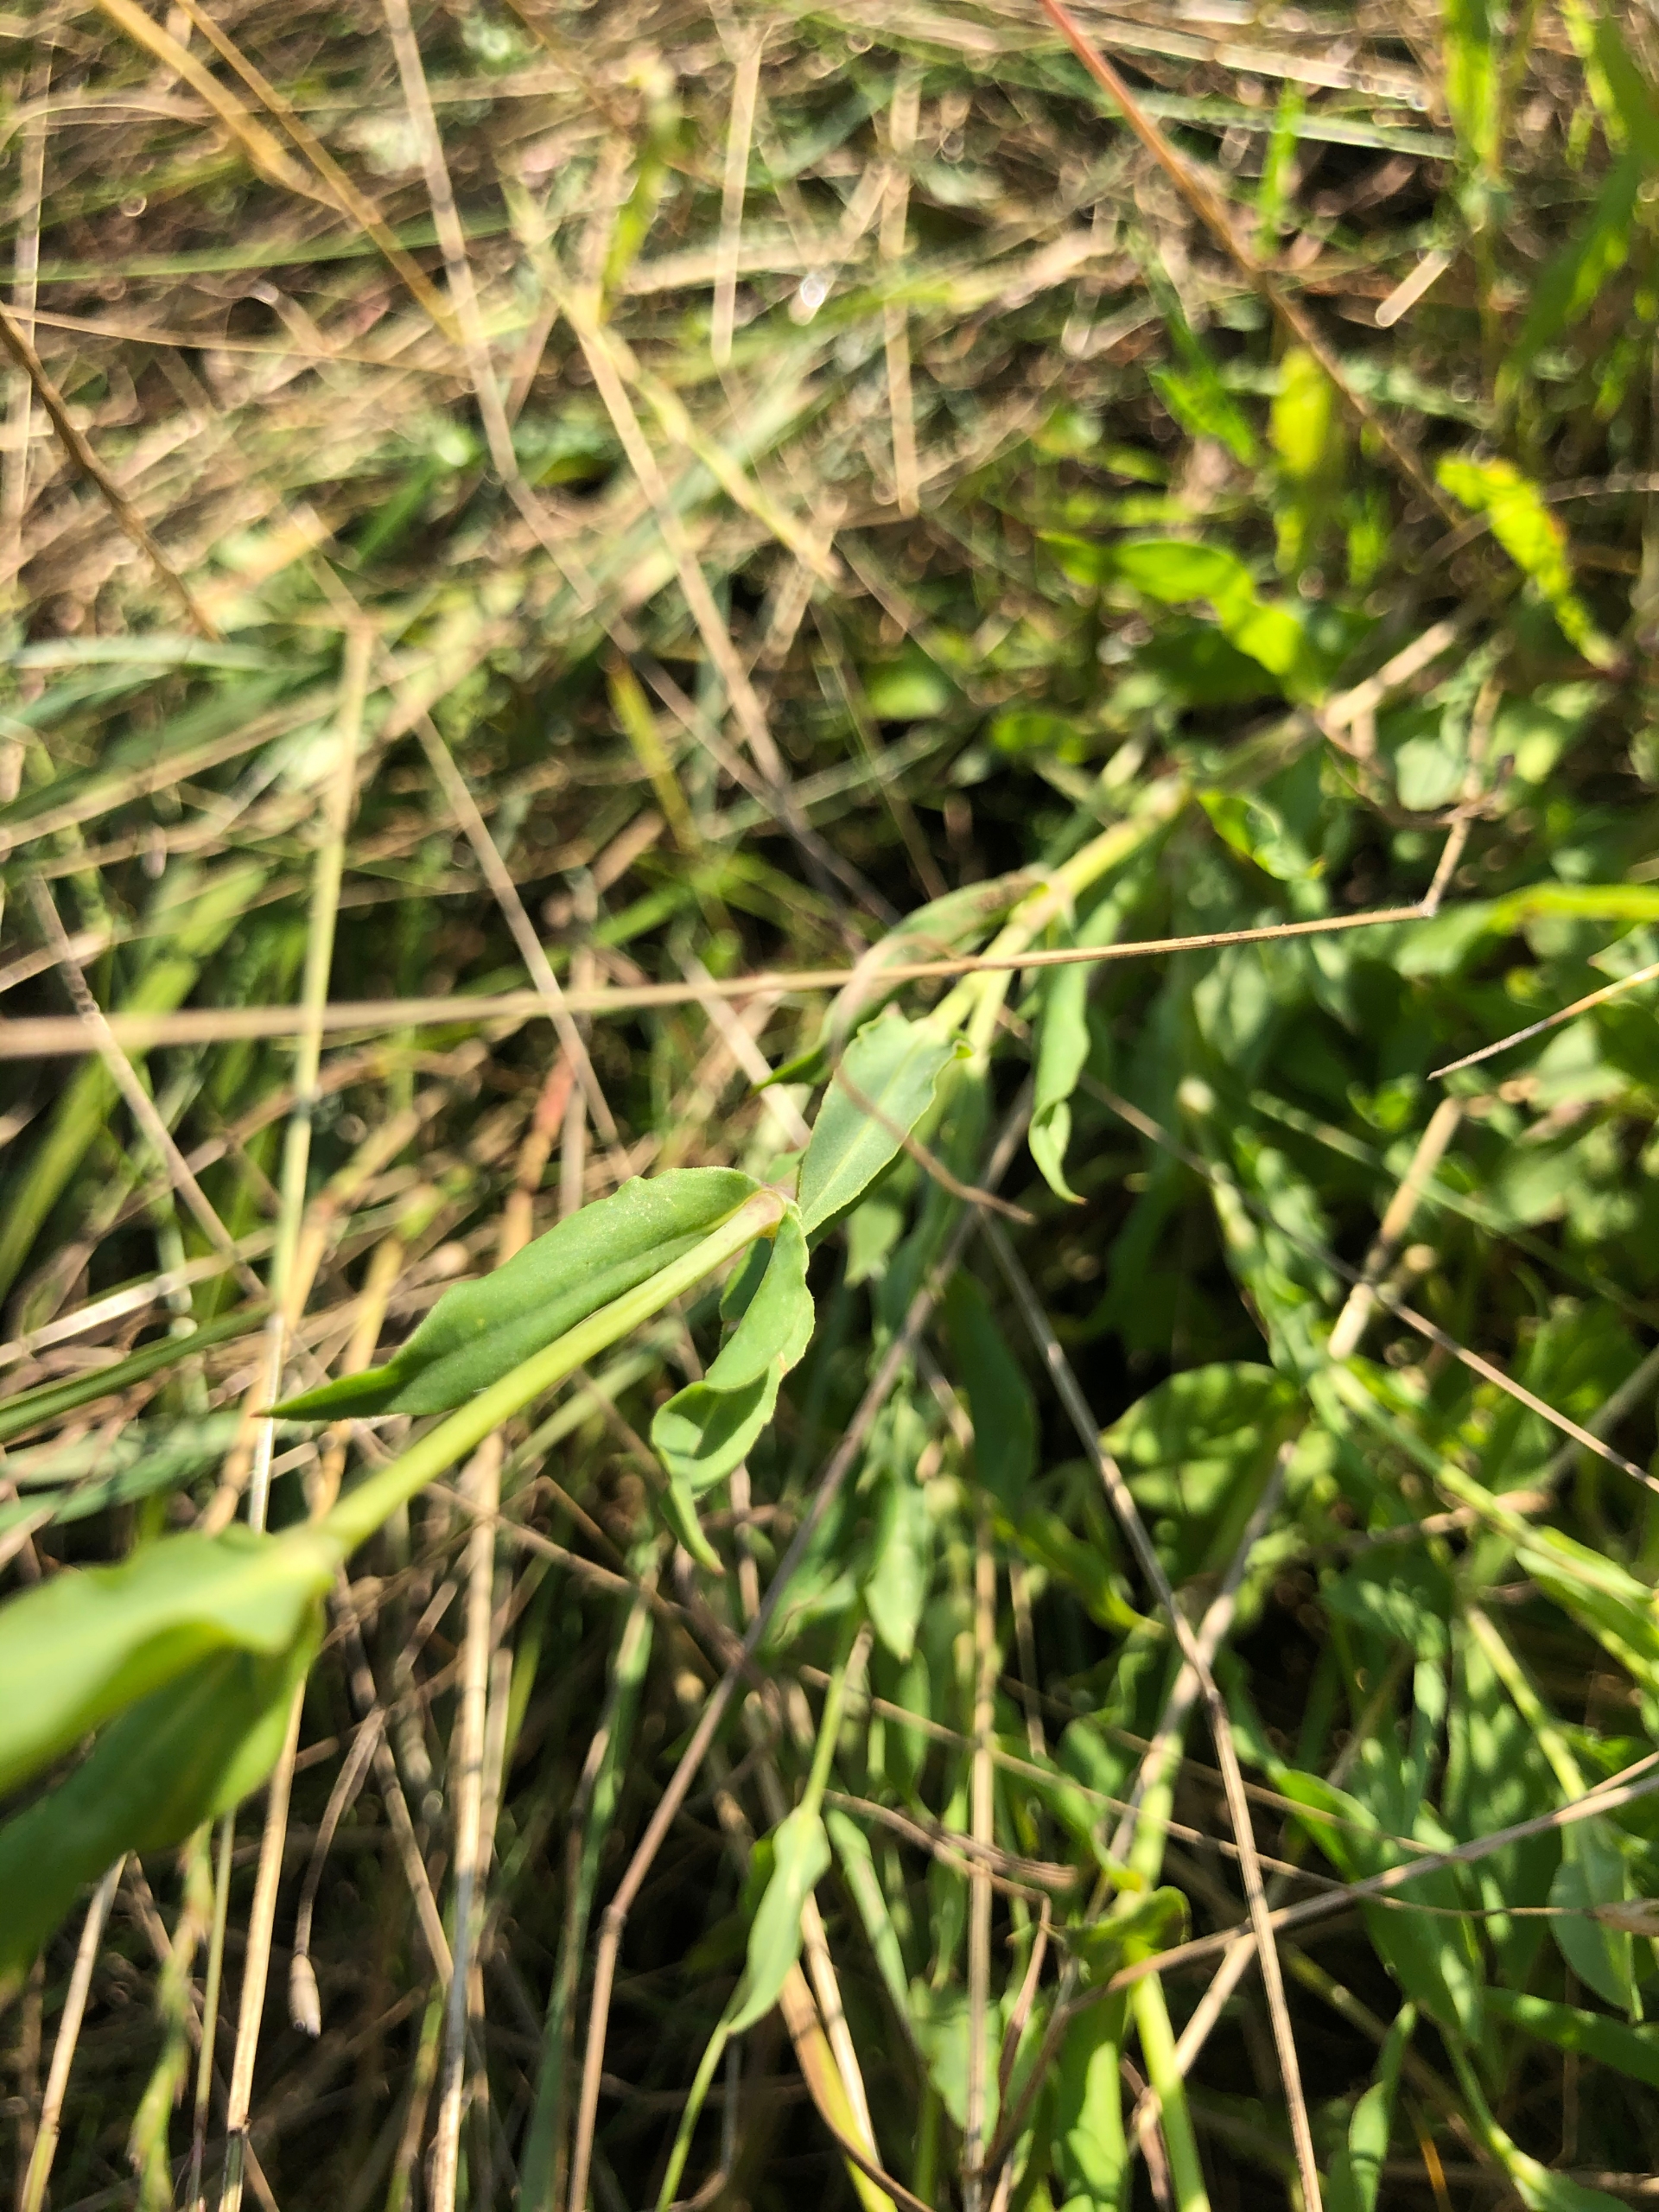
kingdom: Plantae
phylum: Tracheophyta
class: Magnoliopsida
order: Caryophyllales
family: Caryophyllaceae
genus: Silene
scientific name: Silene vulgaris
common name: Blæresmælde
